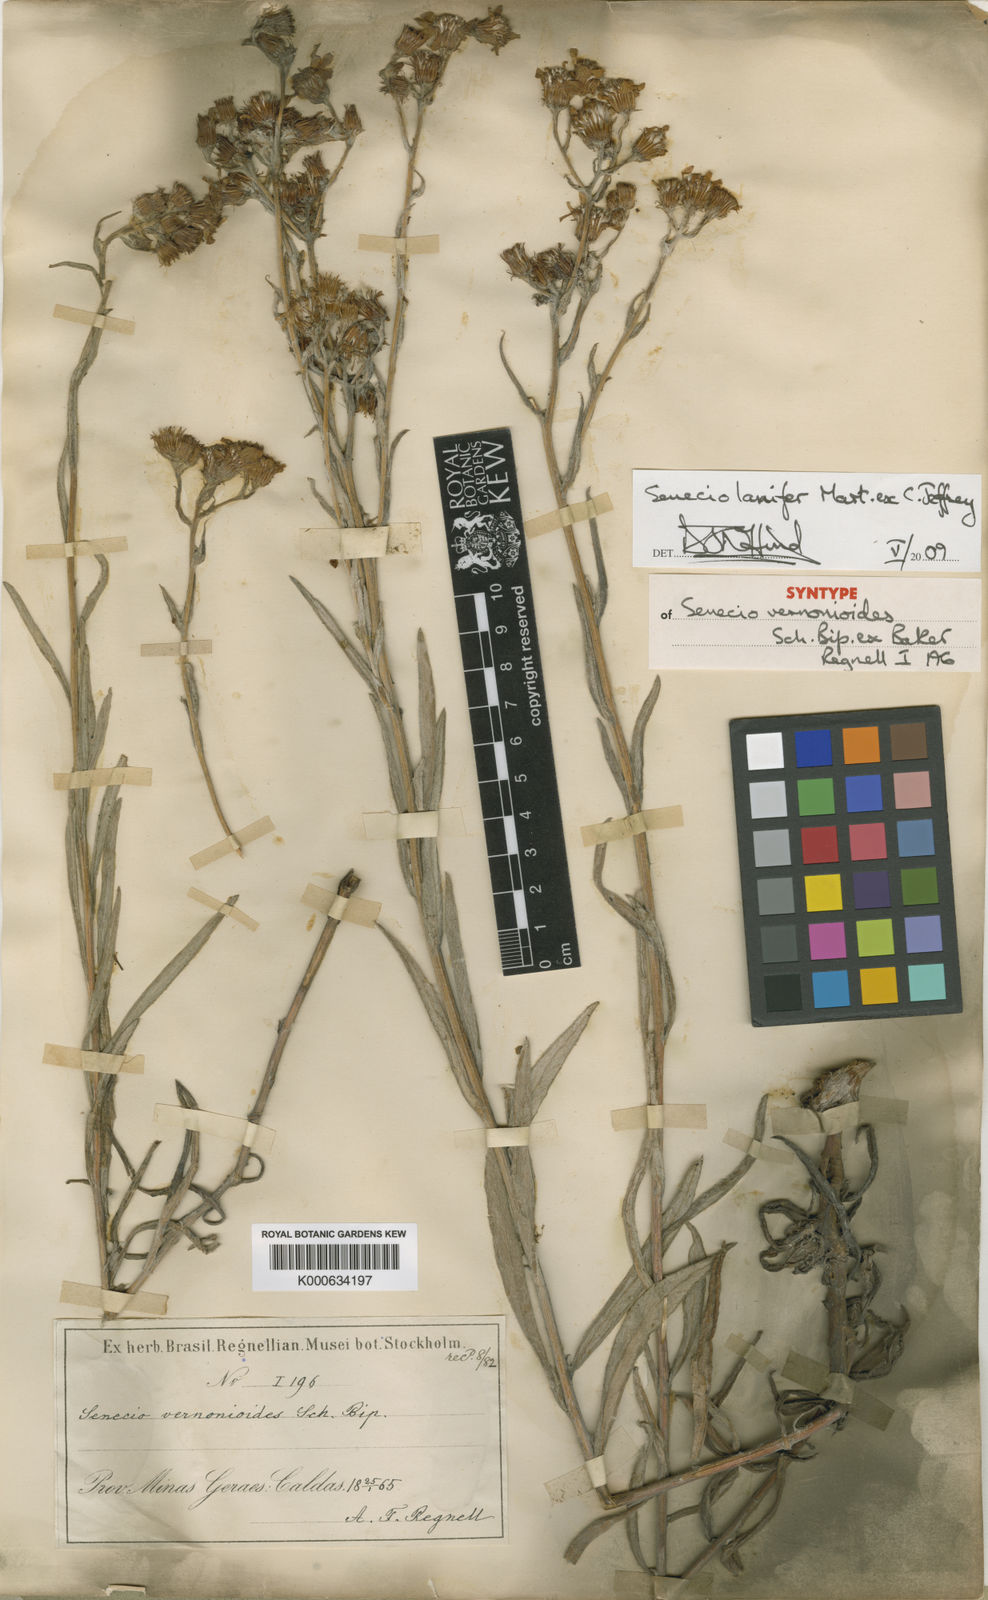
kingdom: Plantae
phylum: Tracheophyta
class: Magnoliopsida
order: Asterales
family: Asteraceae
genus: Senecio
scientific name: Senecio lanifer
